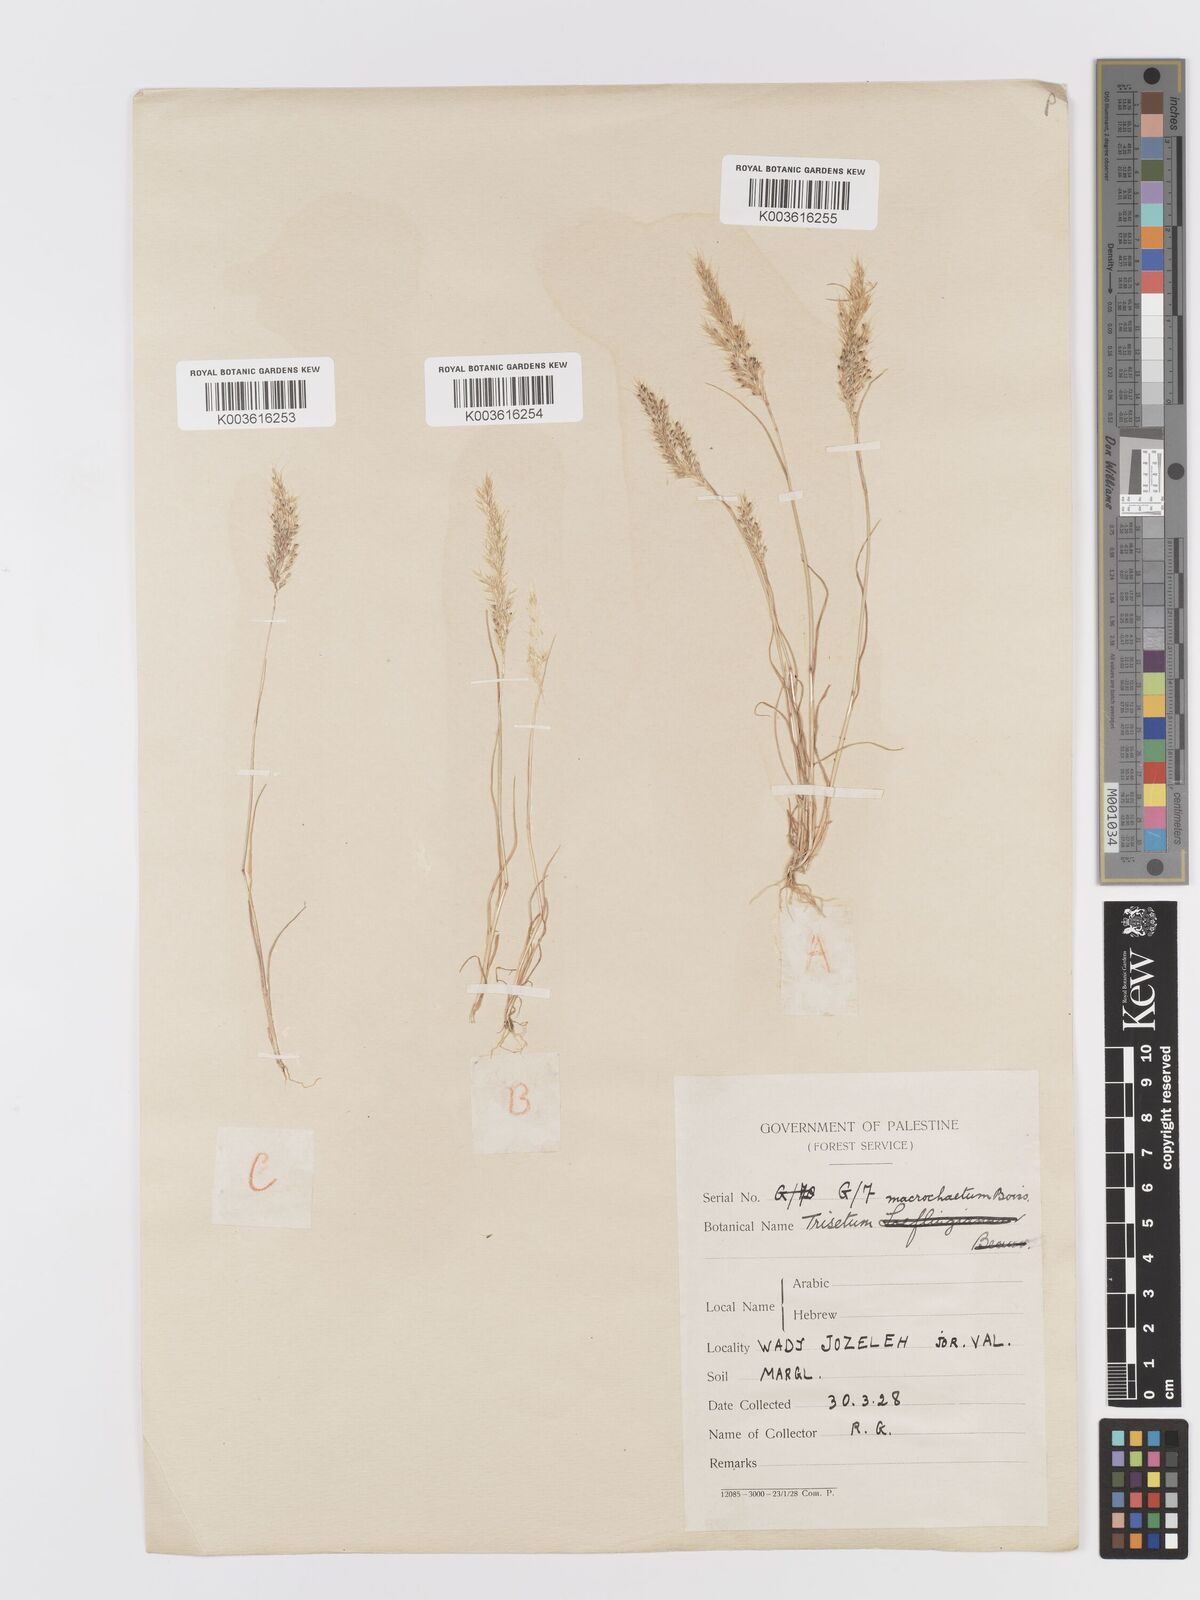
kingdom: Plantae
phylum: Tracheophyta
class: Liliopsida
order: Poales
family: Poaceae
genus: Trisetaria
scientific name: Trisetaria macrochaeta
